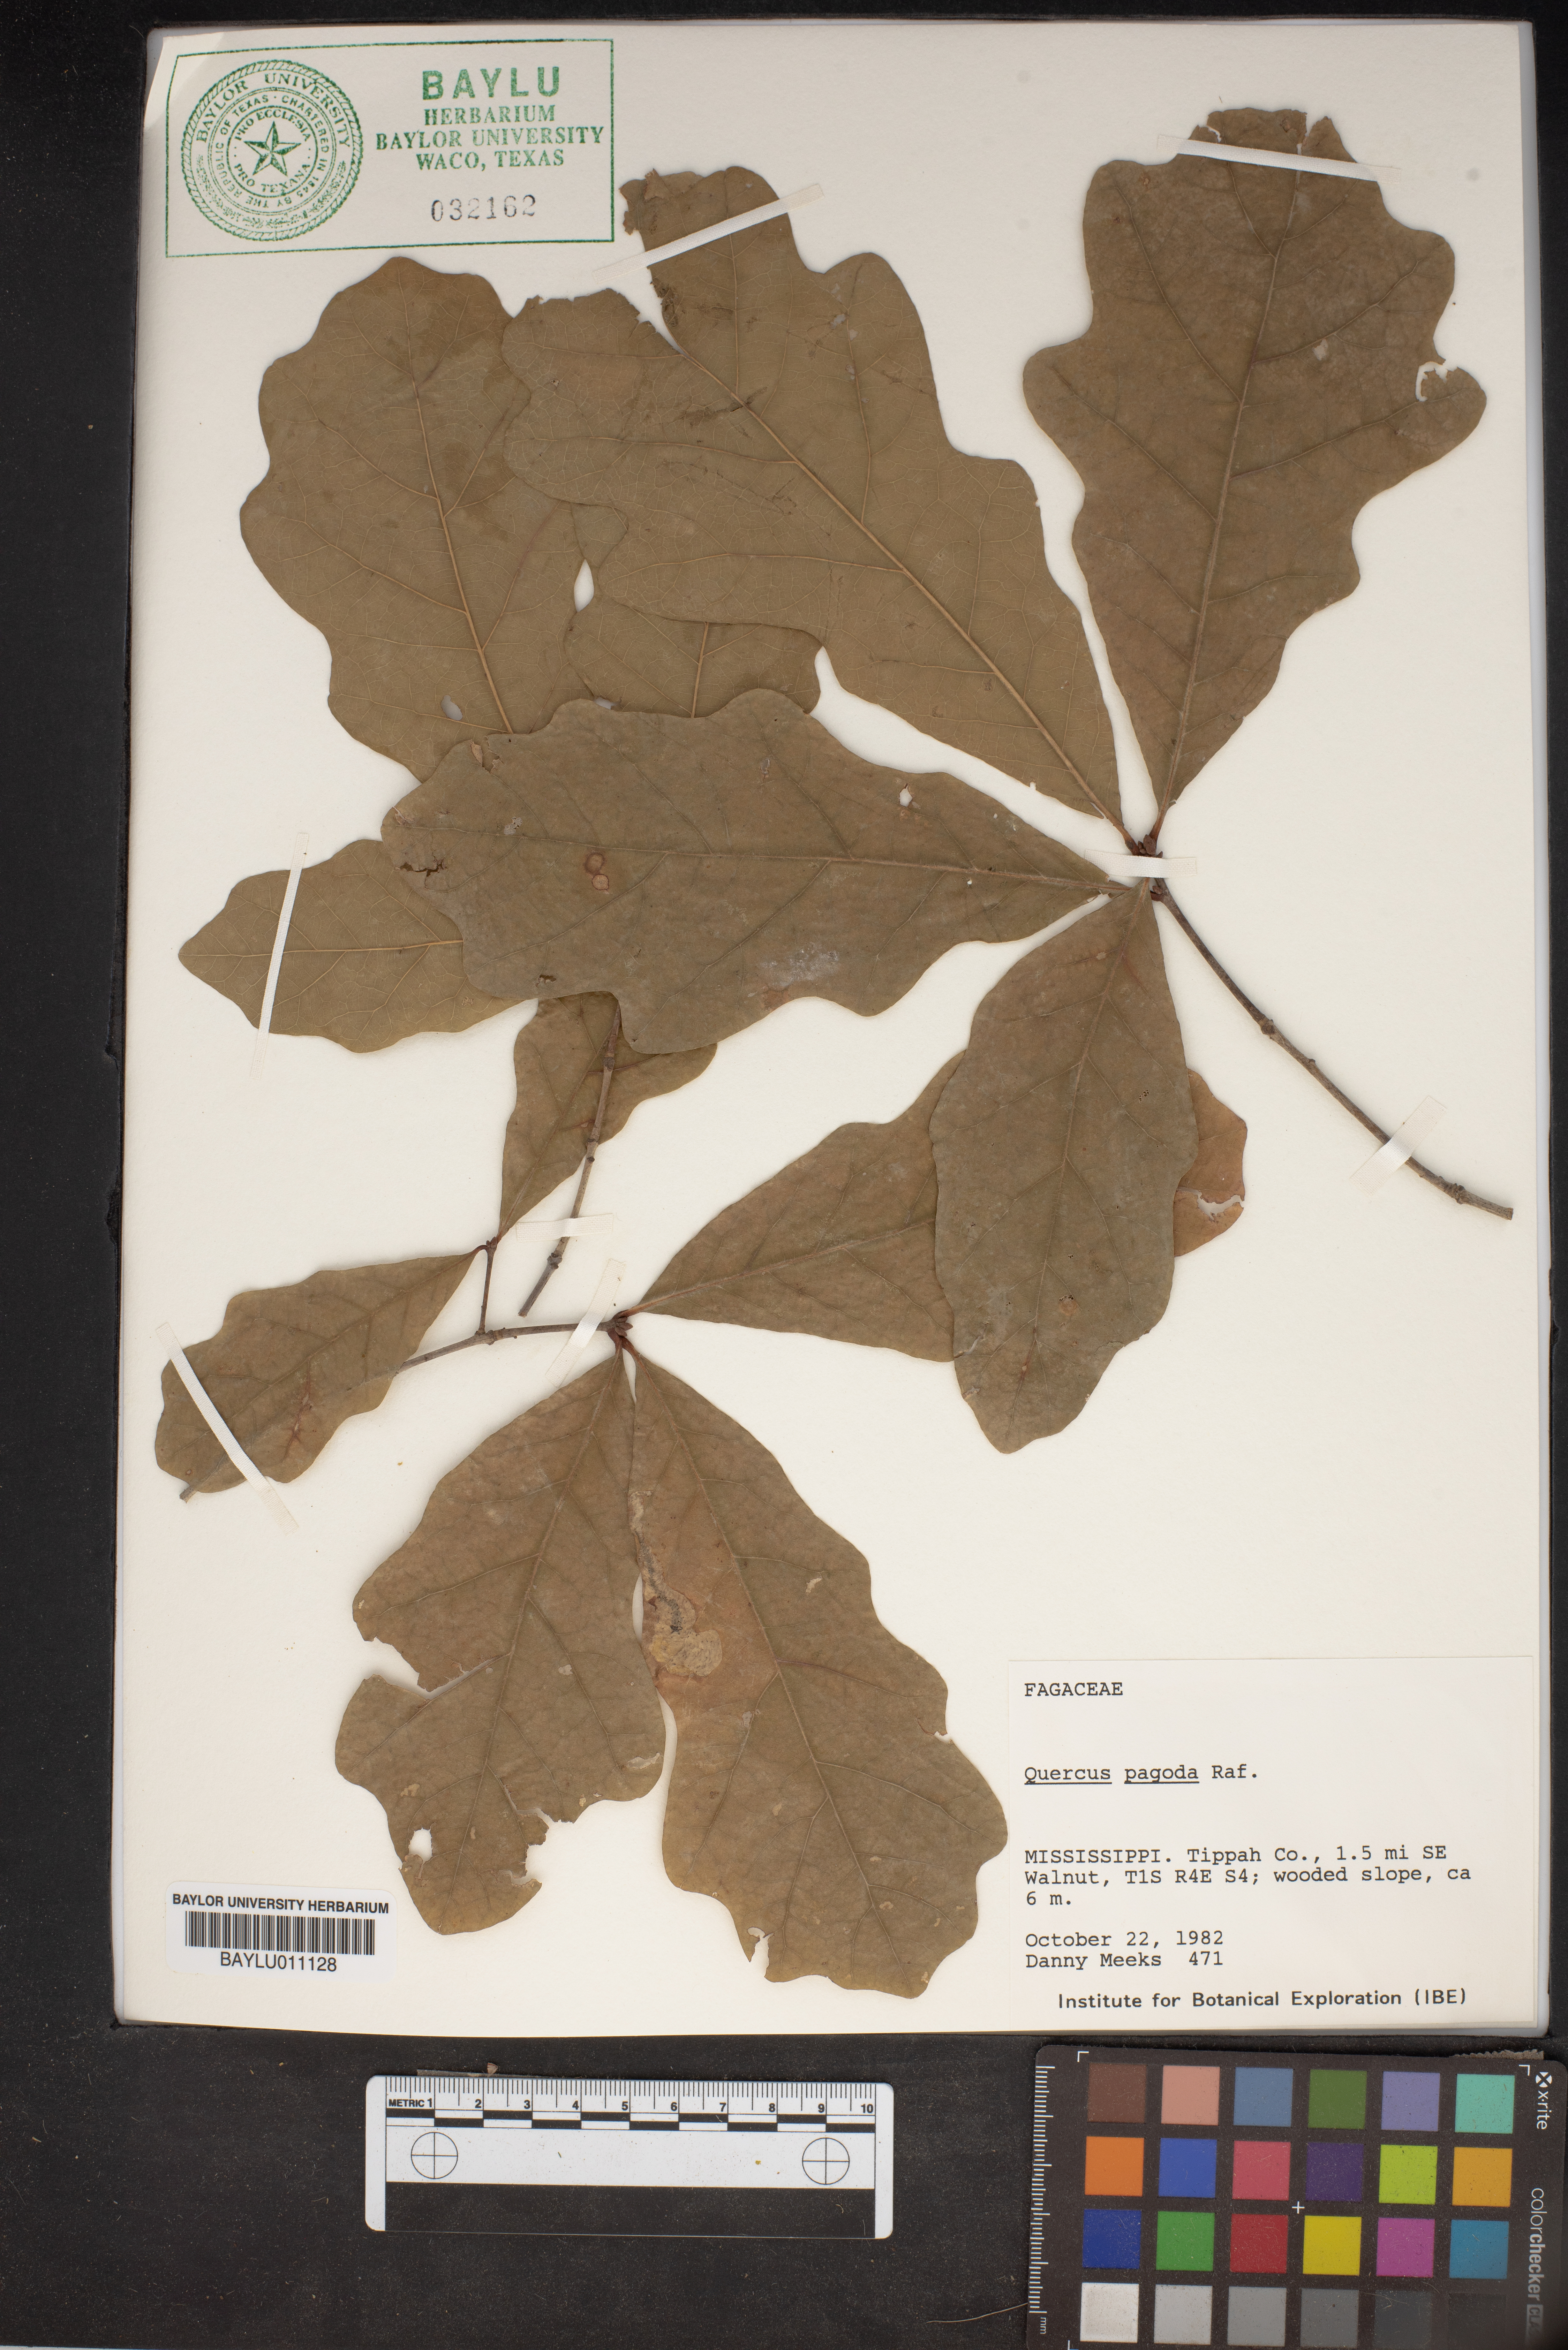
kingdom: Plantae
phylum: Tracheophyta
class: Magnoliopsida
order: Fagales
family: Fagaceae
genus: Quercus
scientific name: Quercus pagoda
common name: Cherrybark oak
